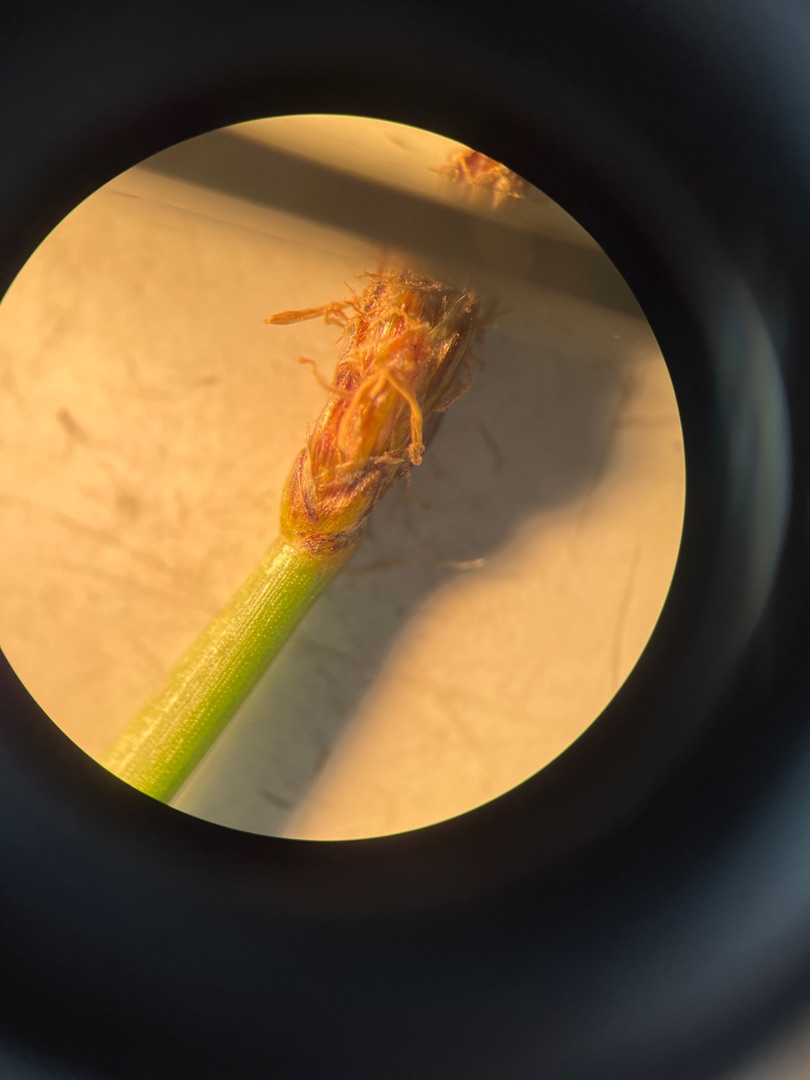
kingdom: Plantae
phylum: Tracheophyta
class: Liliopsida
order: Poales
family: Cyperaceae
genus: Eleocharis
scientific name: Eleocharis palustris
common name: Almindelig sumpstrå
